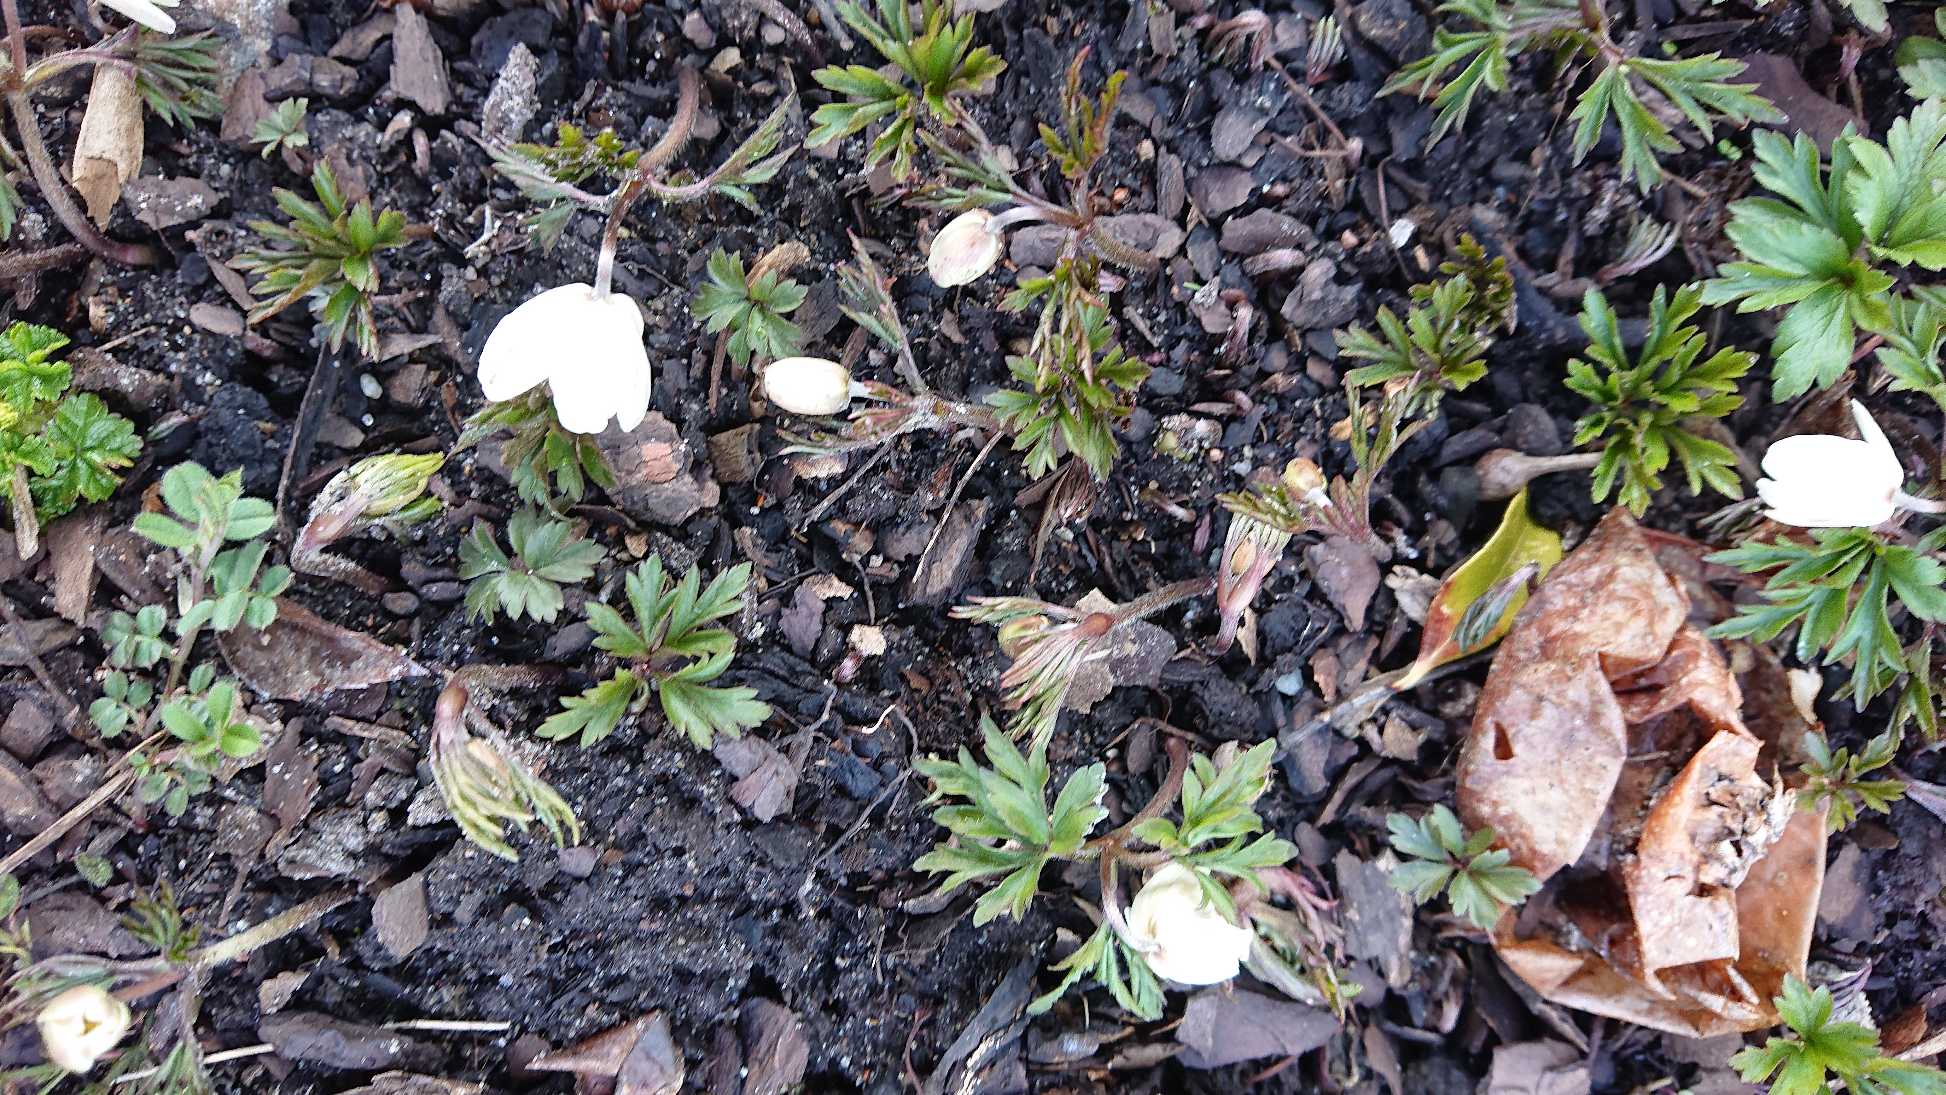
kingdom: Plantae
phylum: Tracheophyta
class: Magnoliopsida
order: Ranunculales
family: Ranunculaceae
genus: Anemone
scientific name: Anemone nemorosa
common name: Hvid anemone
